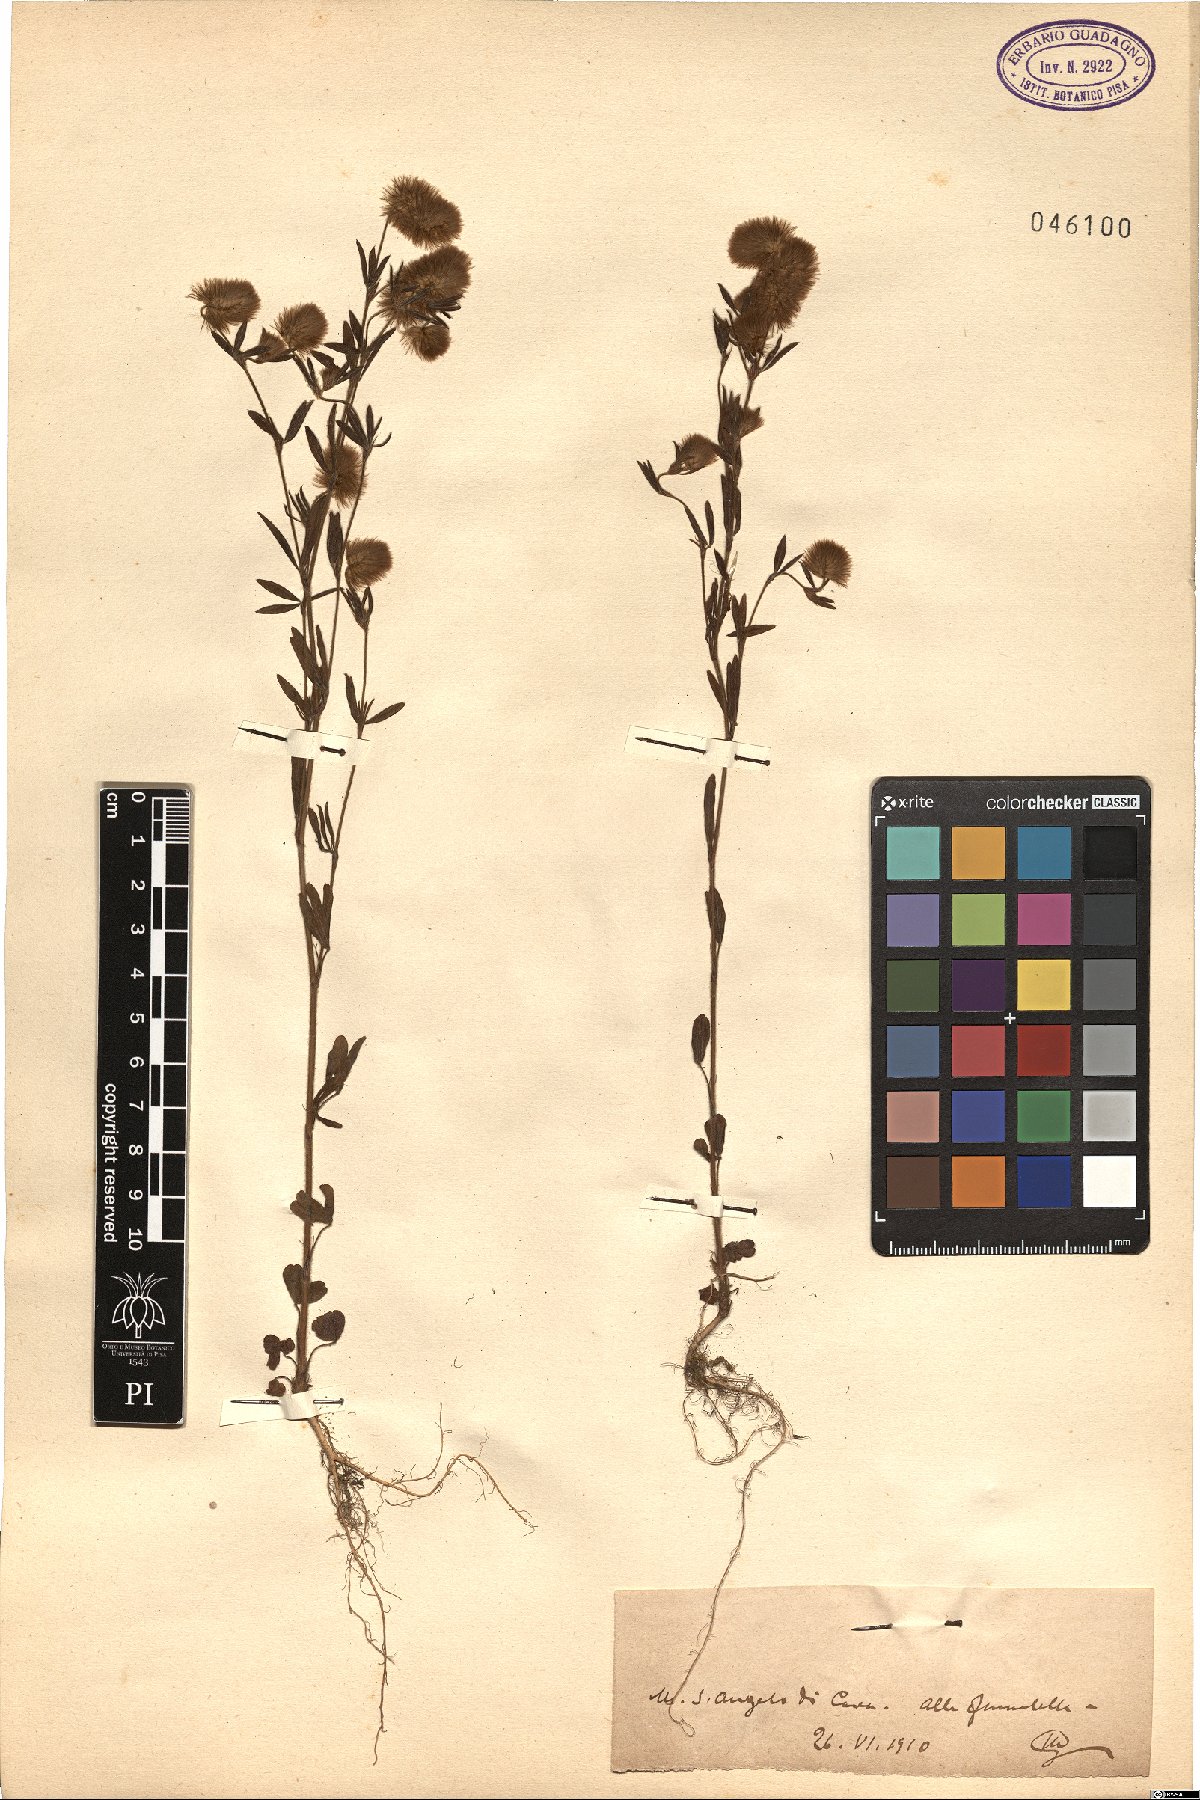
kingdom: Plantae
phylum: Tracheophyta
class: Magnoliopsida
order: Fabales
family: Fabaceae
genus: Trifolium
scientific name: Trifolium
